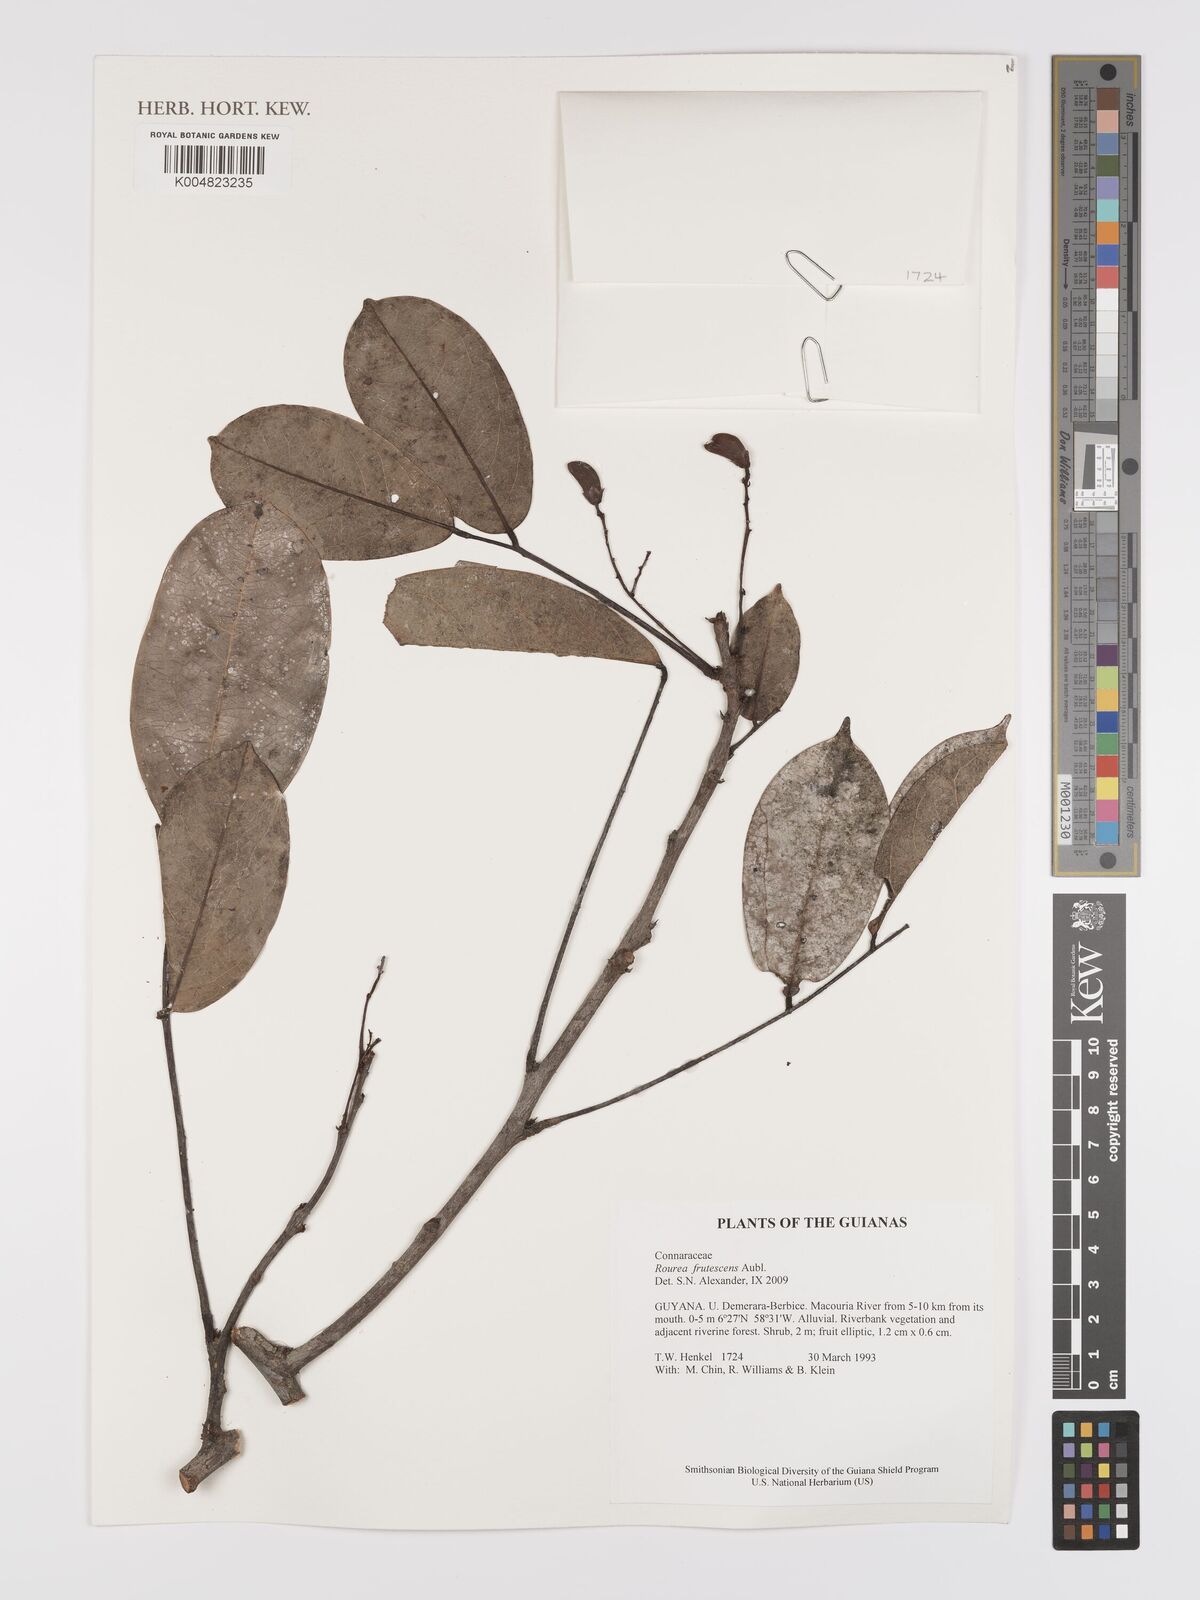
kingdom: Plantae
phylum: Tracheophyta
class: Magnoliopsida
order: Oxalidales
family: Connaraceae
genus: Rourea
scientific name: Rourea frutescens
